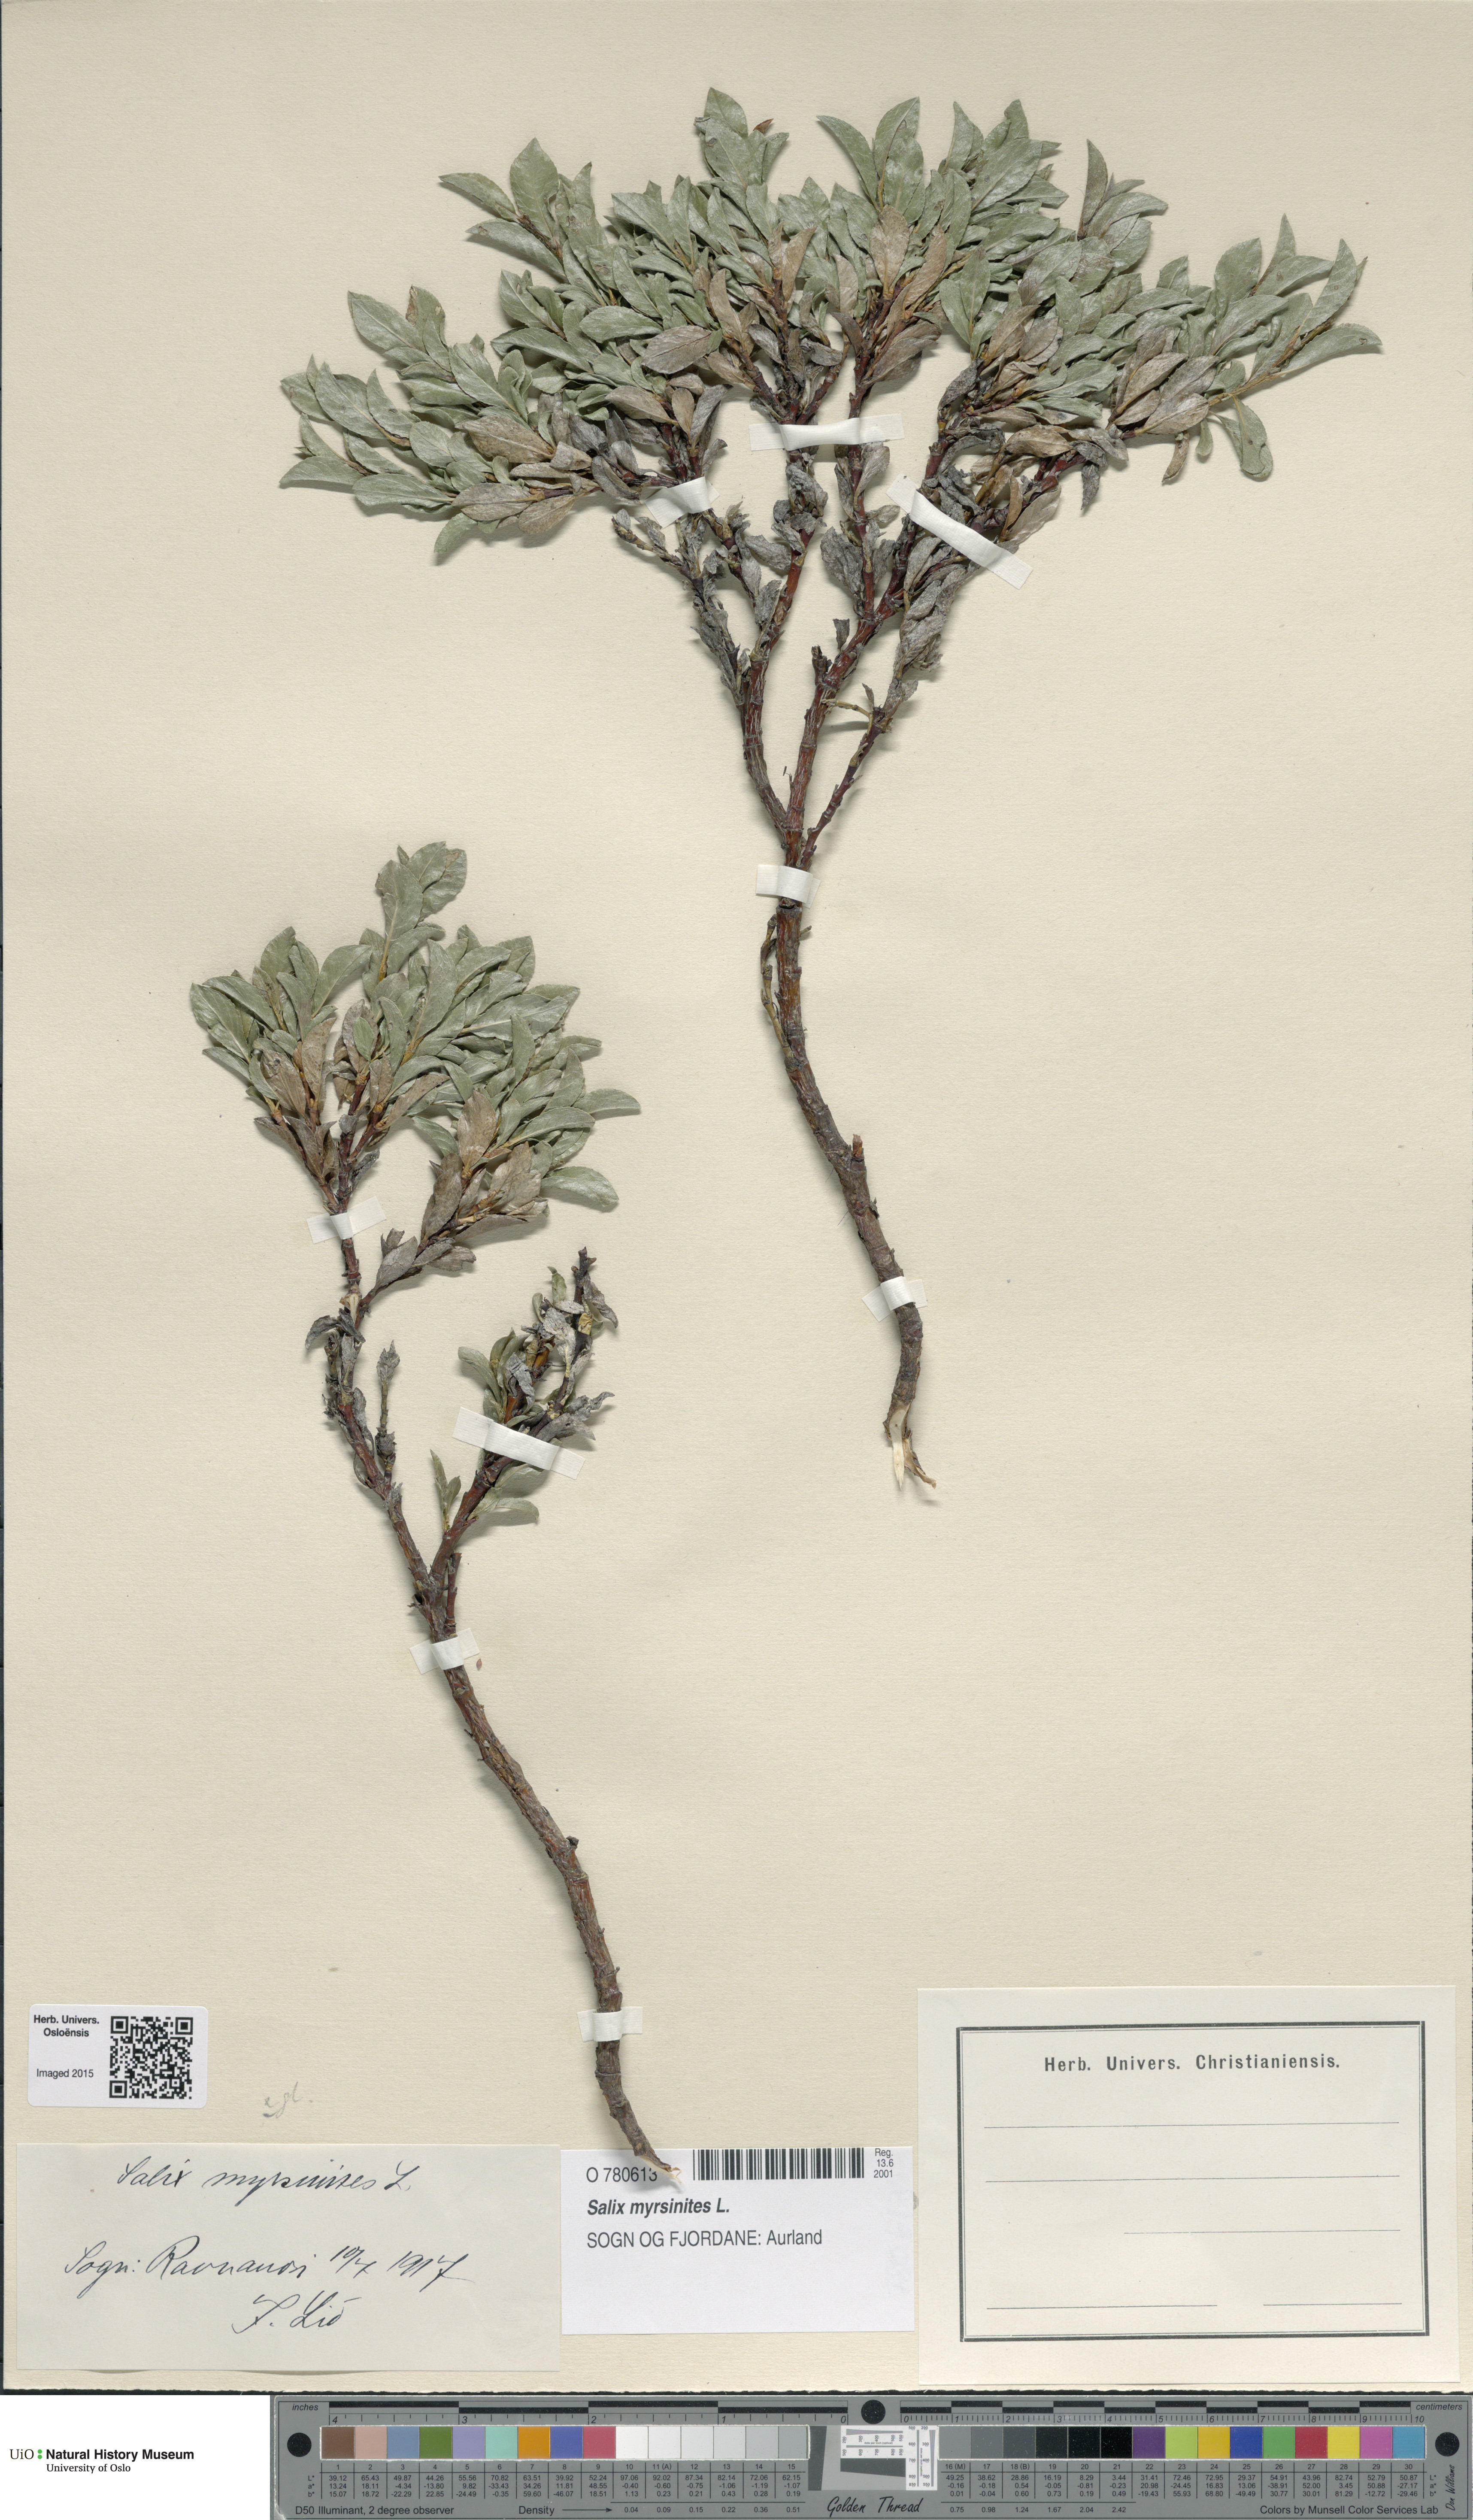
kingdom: Plantae
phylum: Tracheophyta
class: Magnoliopsida
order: Malpighiales
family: Salicaceae
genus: Salix
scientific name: Salix myrsinites
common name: Myrtle willow
